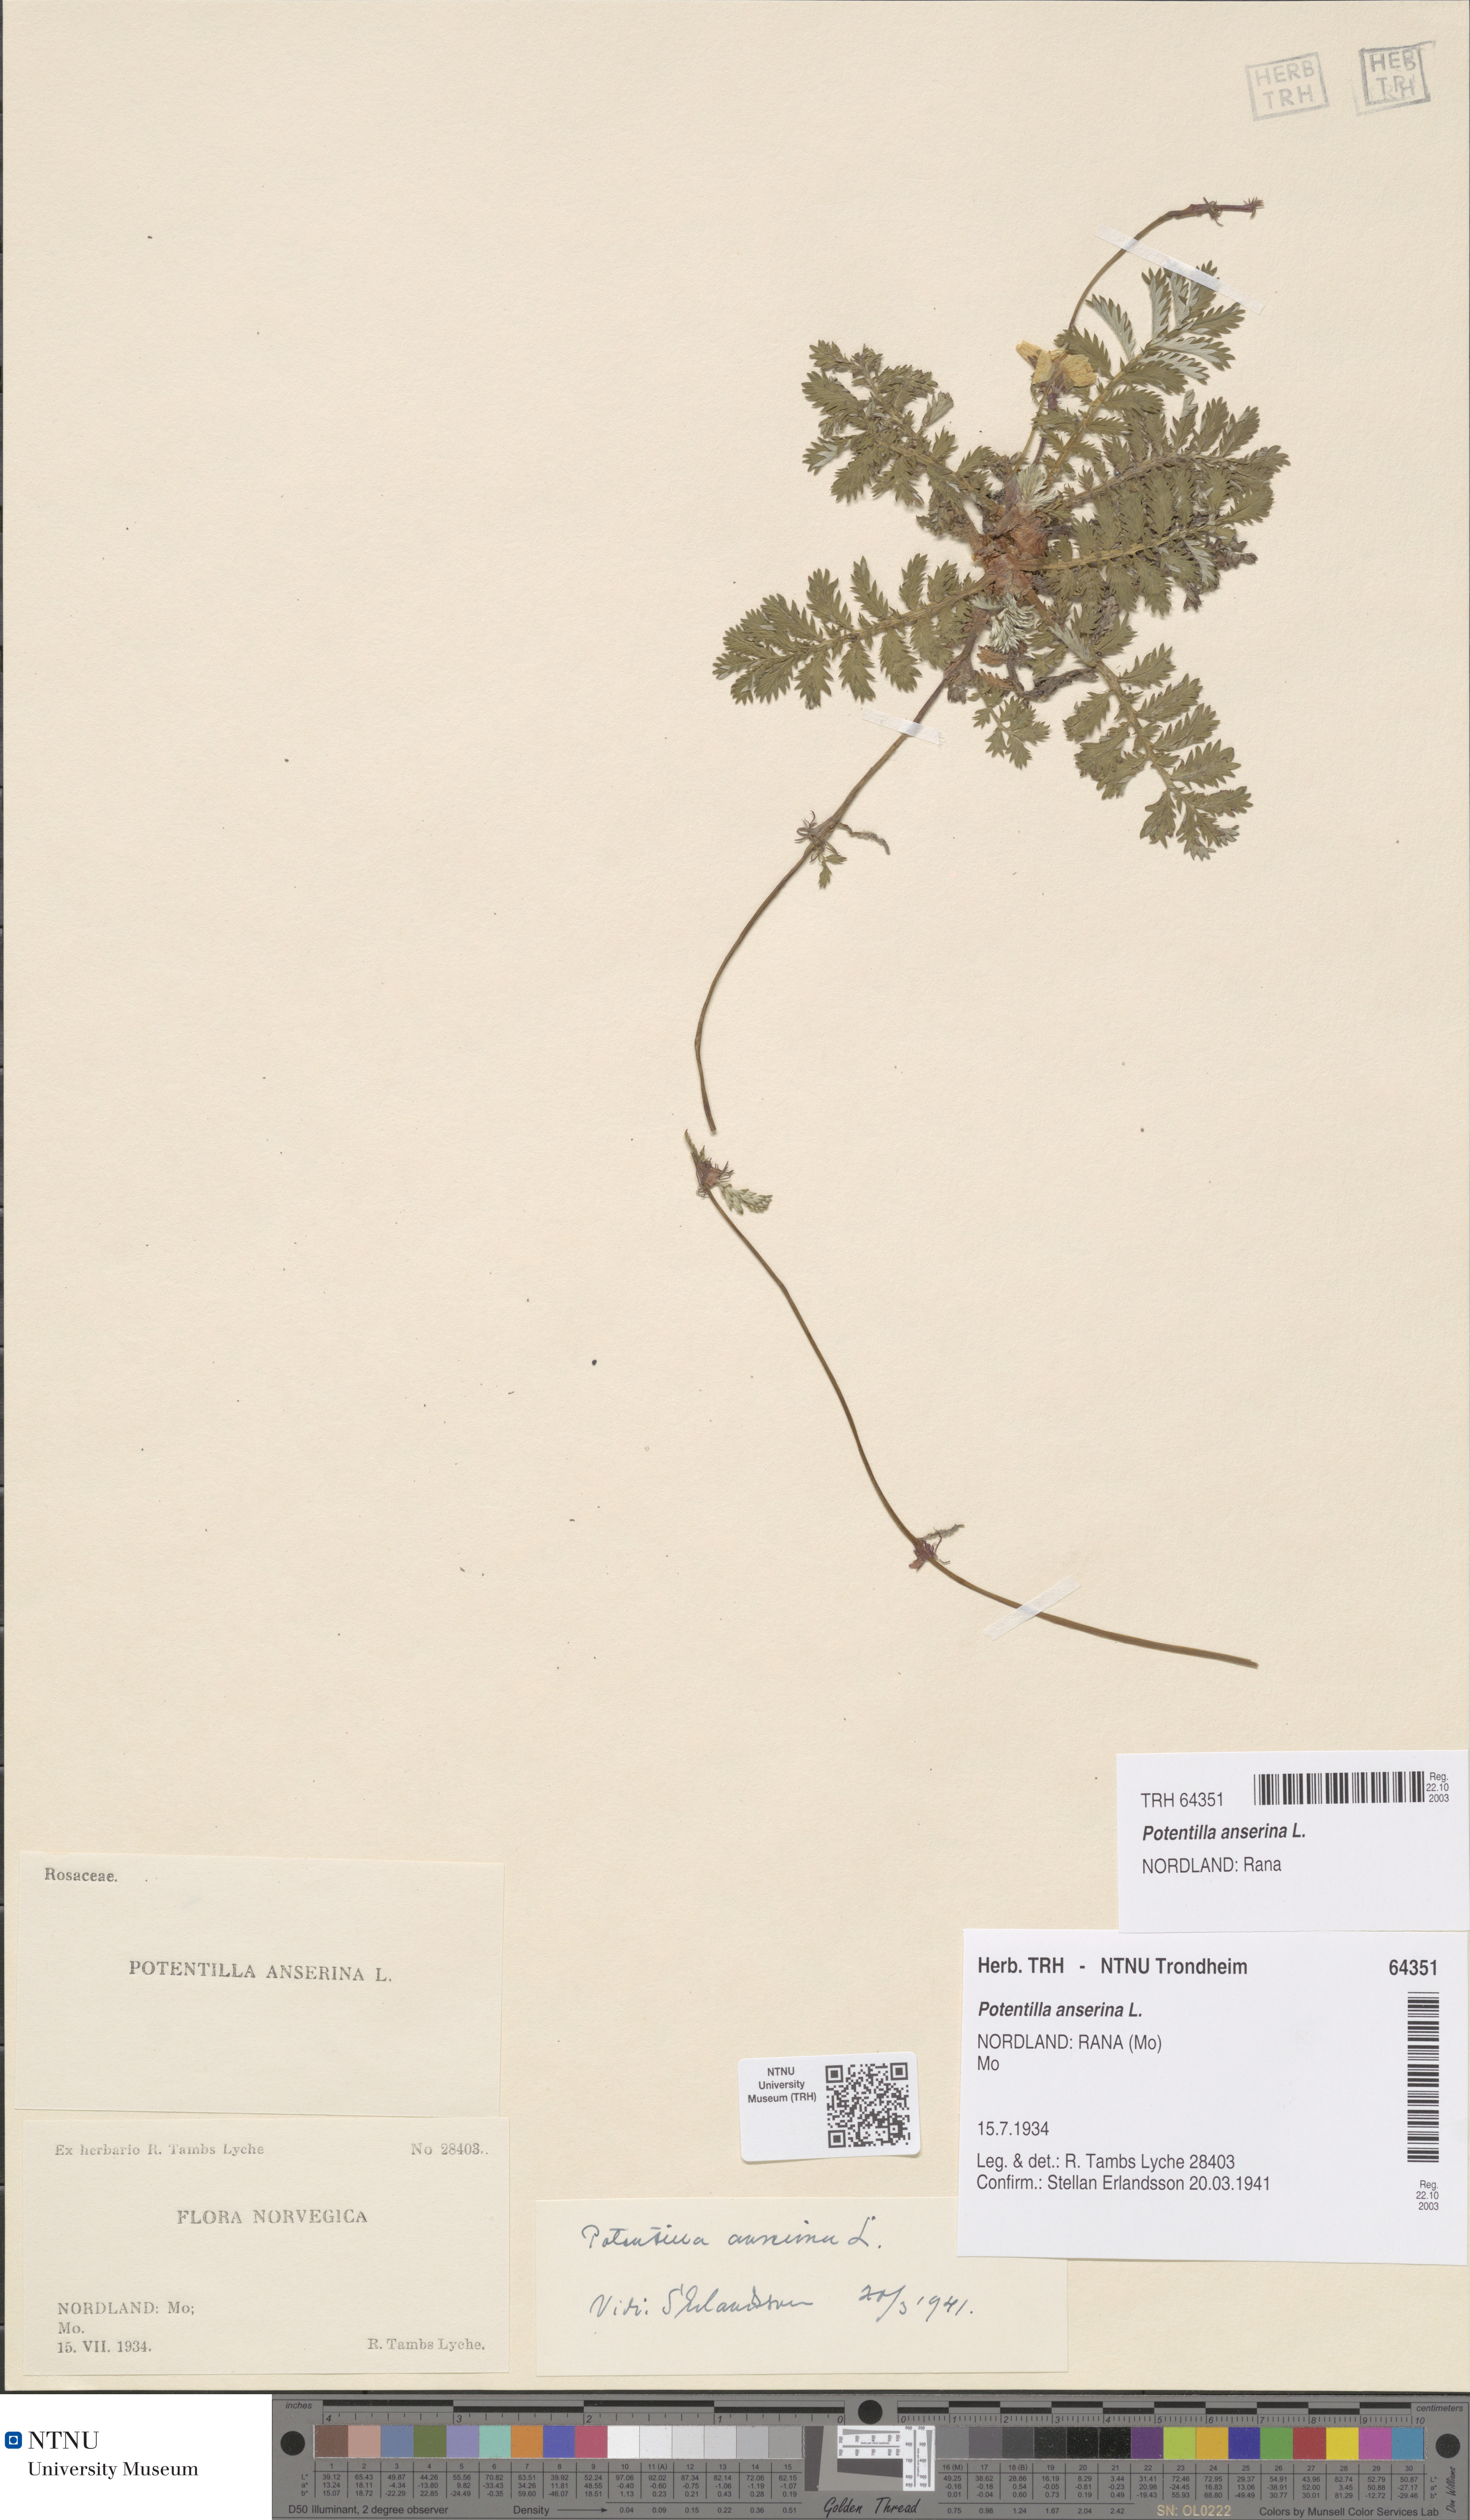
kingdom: Plantae
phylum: Tracheophyta
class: Magnoliopsida
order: Rosales
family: Rosaceae
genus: Argentina
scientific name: Argentina anserina
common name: Common silverweed
